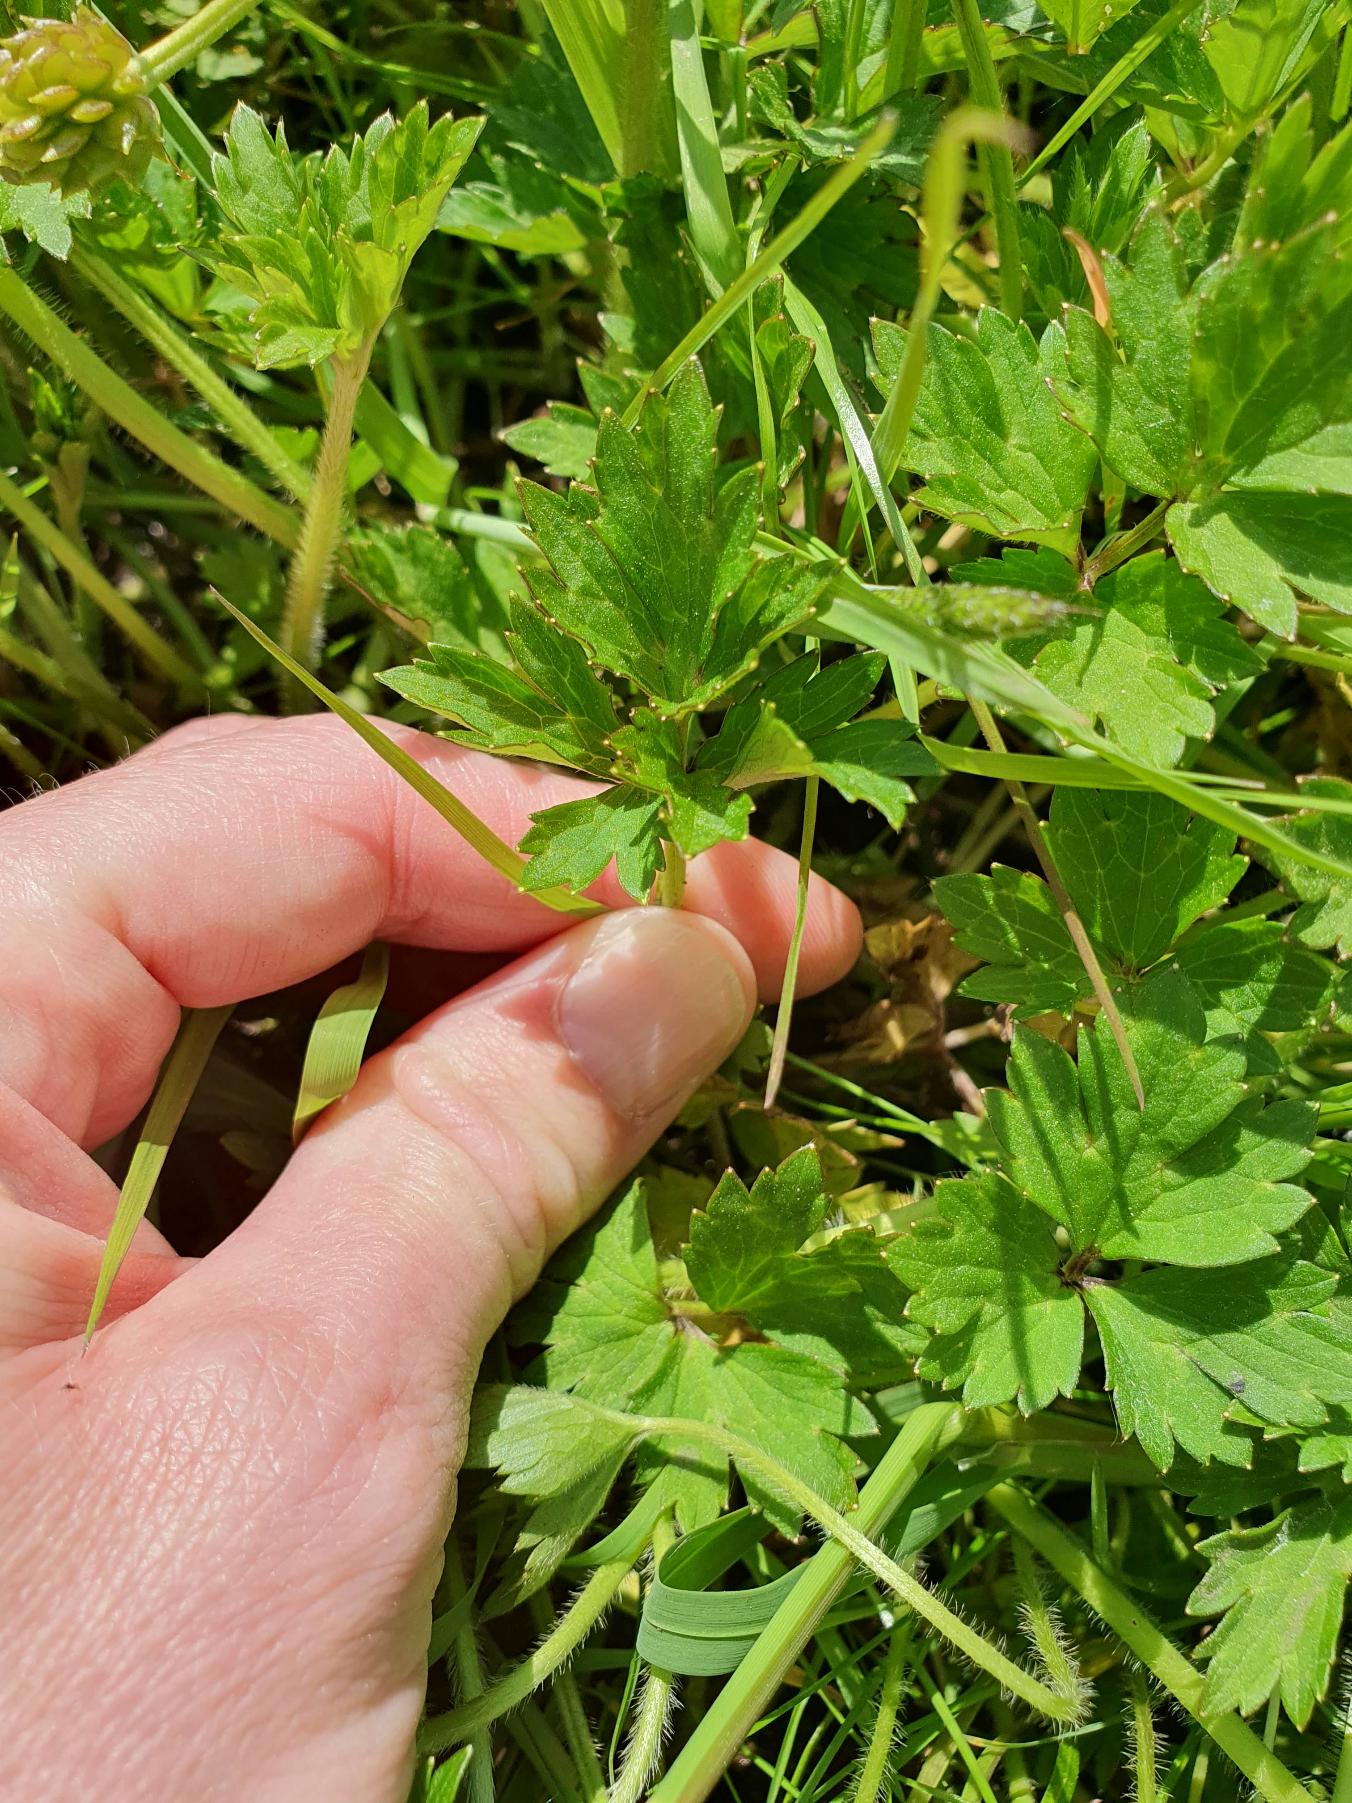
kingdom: Plantae
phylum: Tracheophyta
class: Magnoliopsida
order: Ranunculales
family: Ranunculaceae
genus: Ranunculus
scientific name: Ranunculus repens
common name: Lav ranunkel
